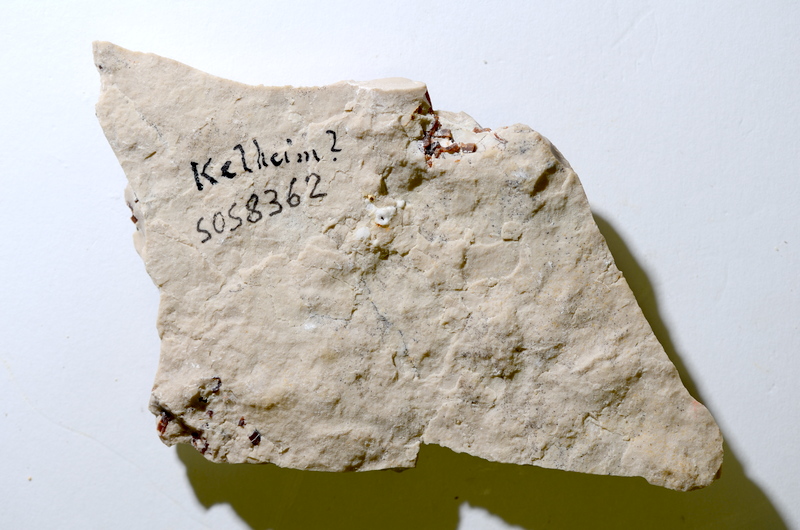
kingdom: Animalia
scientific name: Animalia
